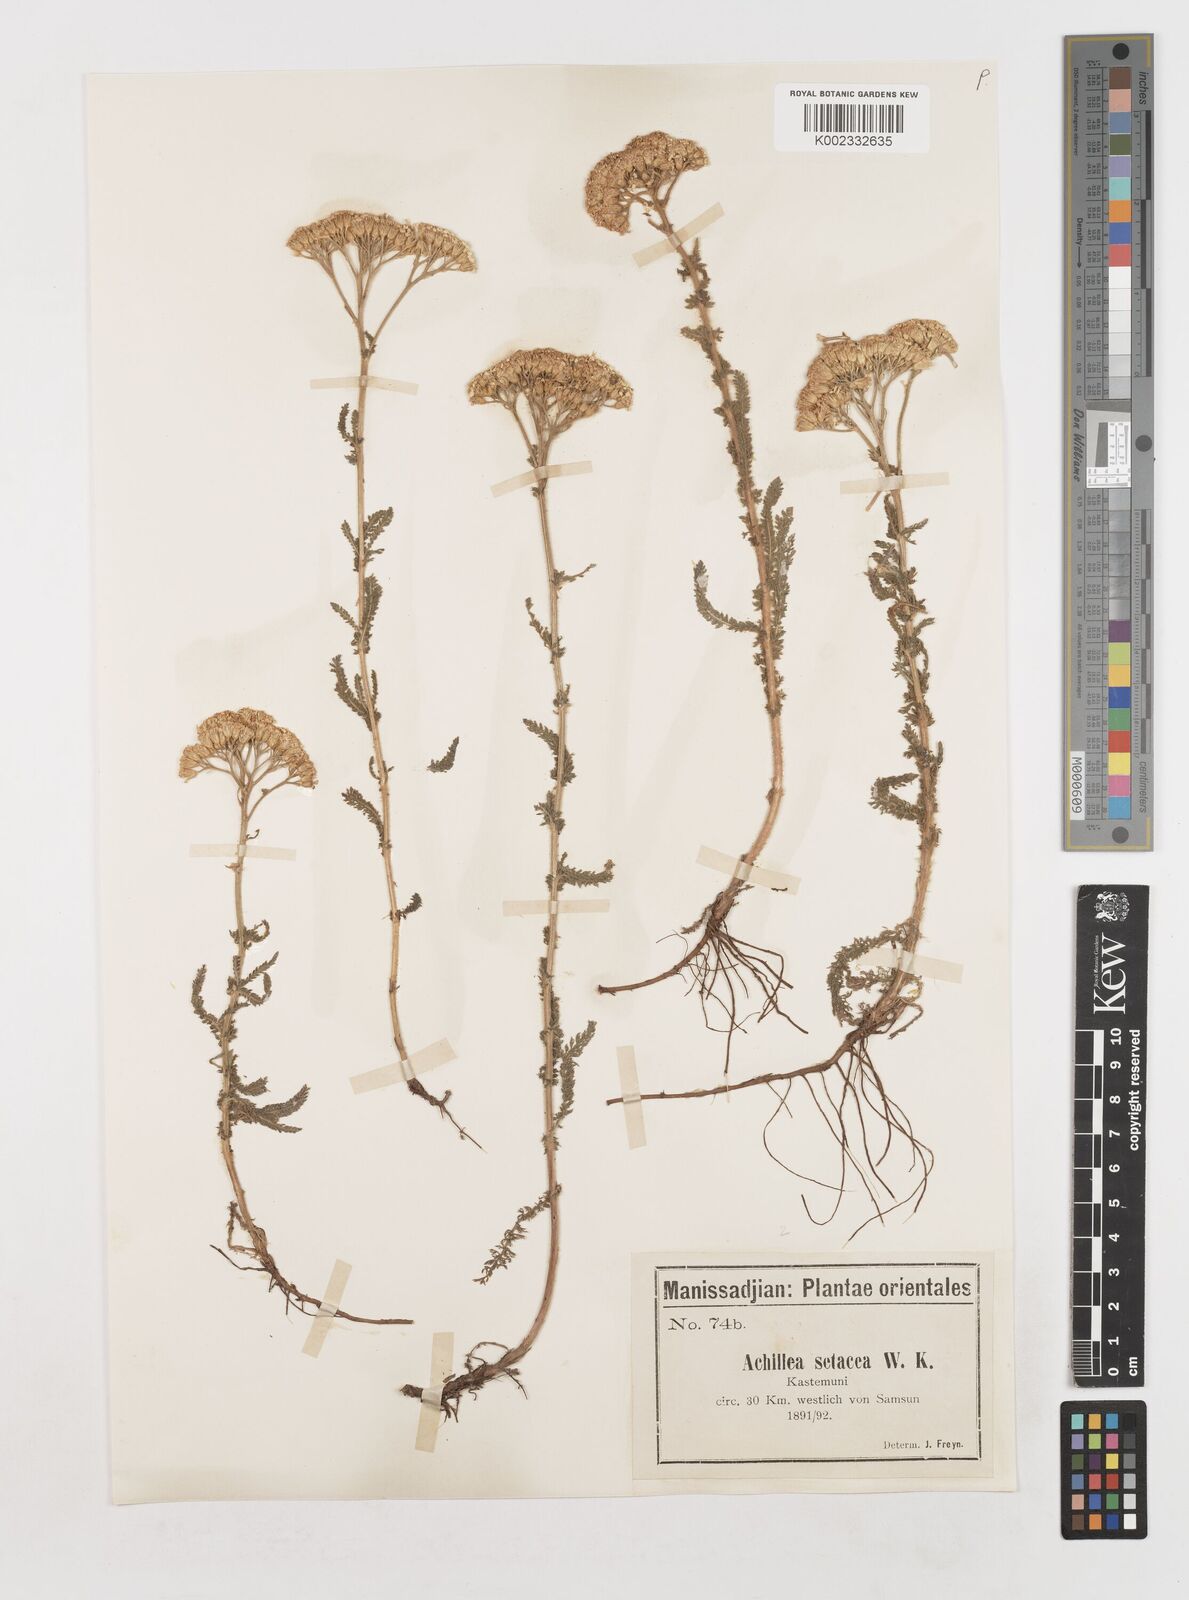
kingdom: Plantae
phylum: Tracheophyta
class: Magnoliopsida
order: Asterales
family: Asteraceae
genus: Achillea
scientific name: Achillea setacea
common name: Bristly yarrow
